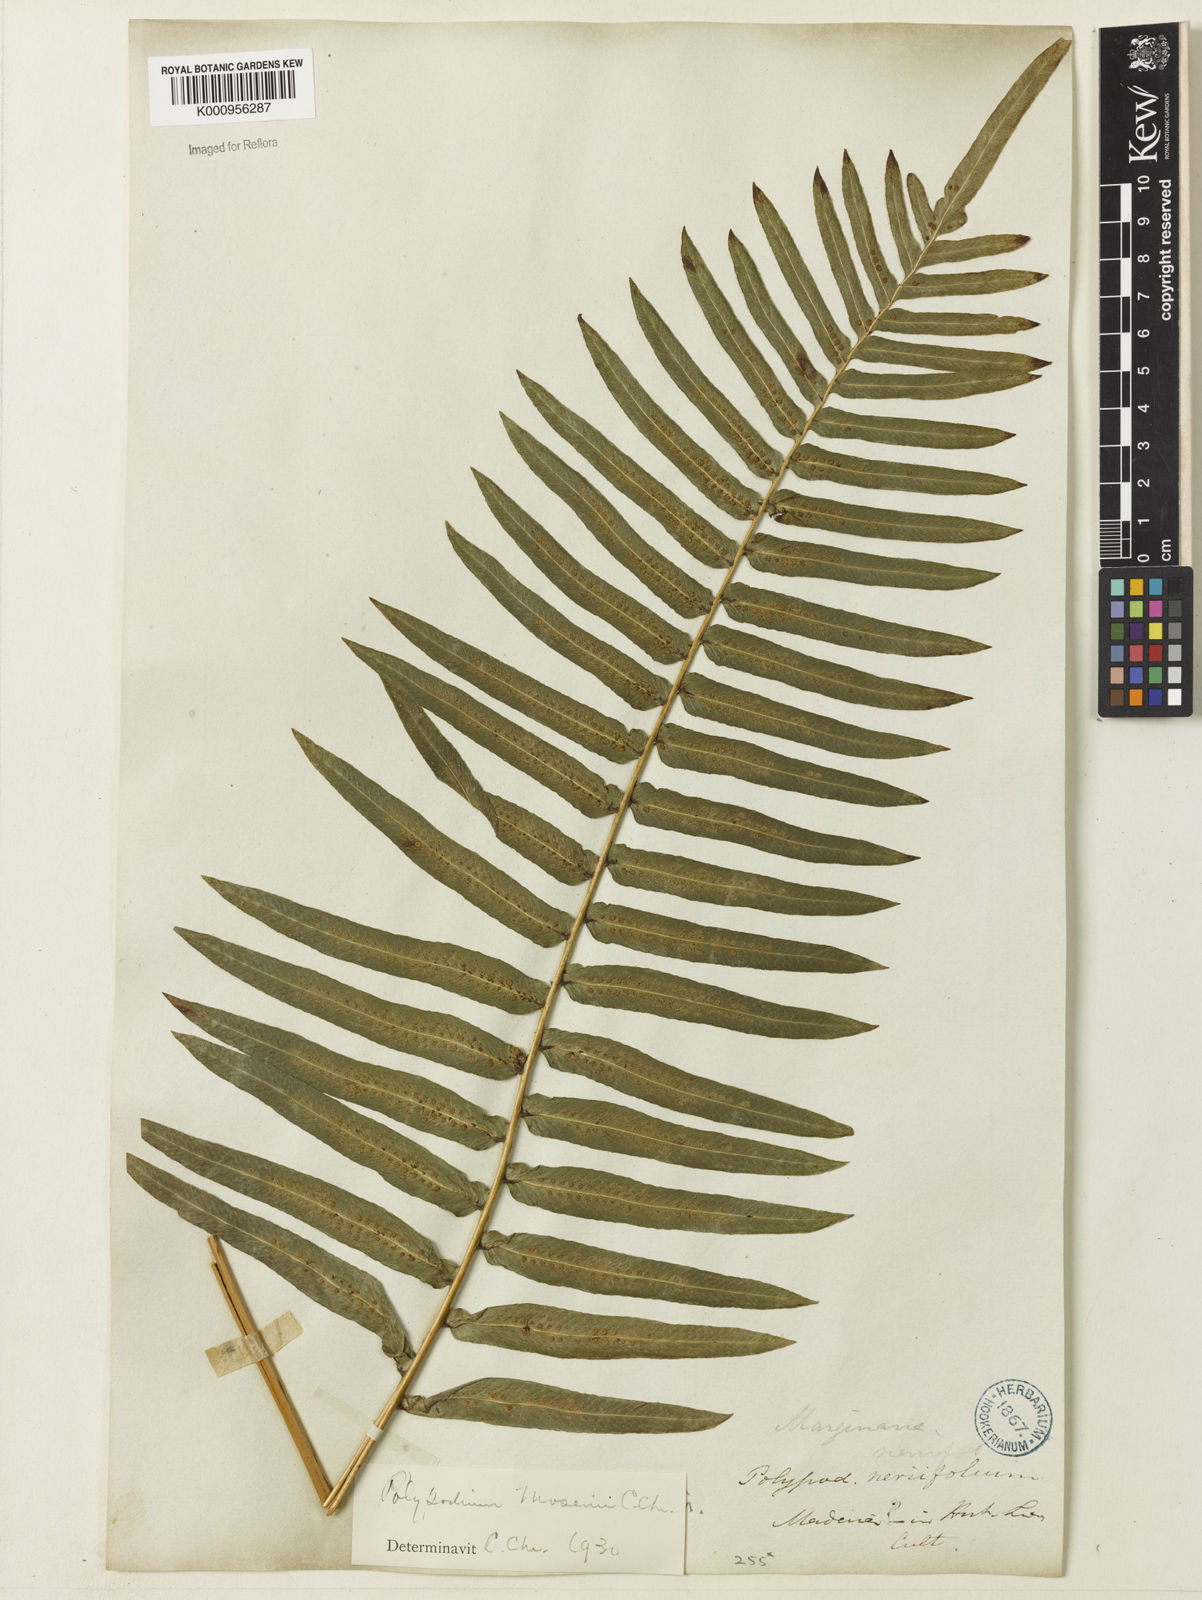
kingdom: Plantae
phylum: Tracheophyta
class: Polypodiopsida
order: Polypodiales
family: Polypodiaceae
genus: Serpocaulon
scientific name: Serpocaulon menisciifolium
